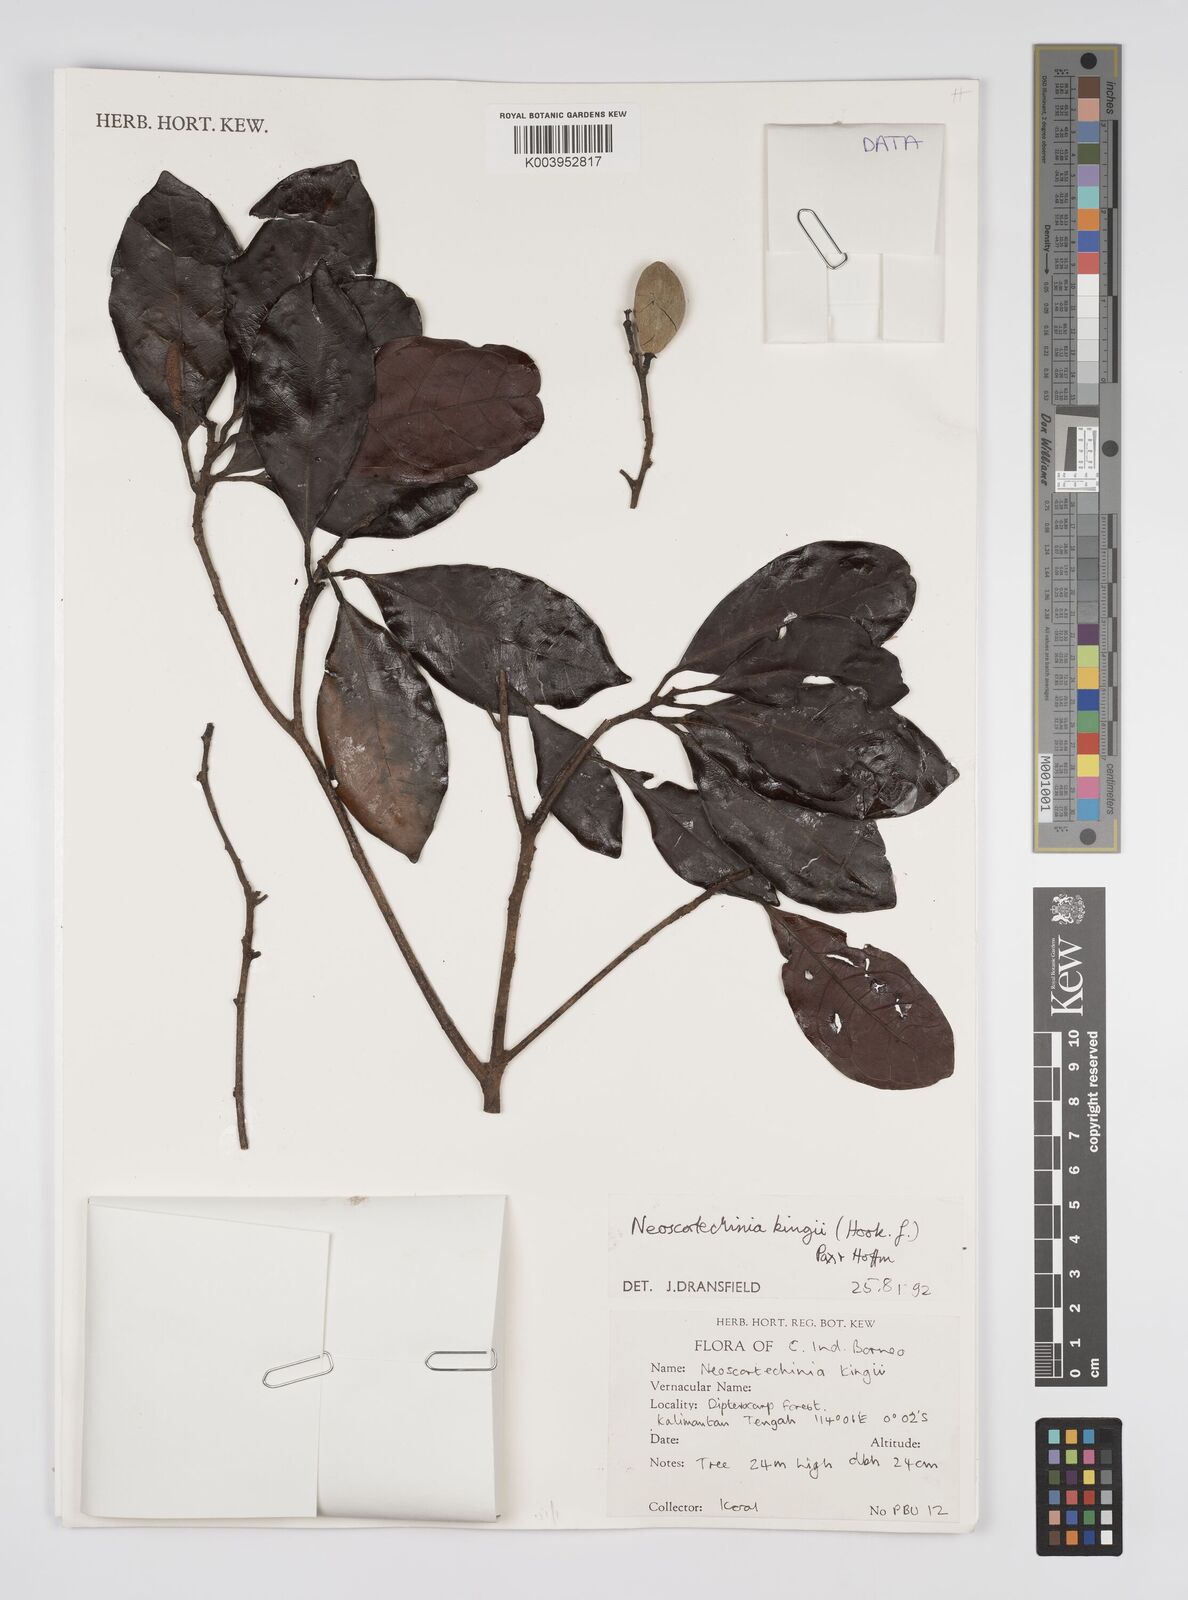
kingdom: Plantae
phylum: Tracheophyta
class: Magnoliopsida
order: Malpighiales
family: Euphorbiaceae
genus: Neoscortechinia
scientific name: Neoscortechinia kingii
